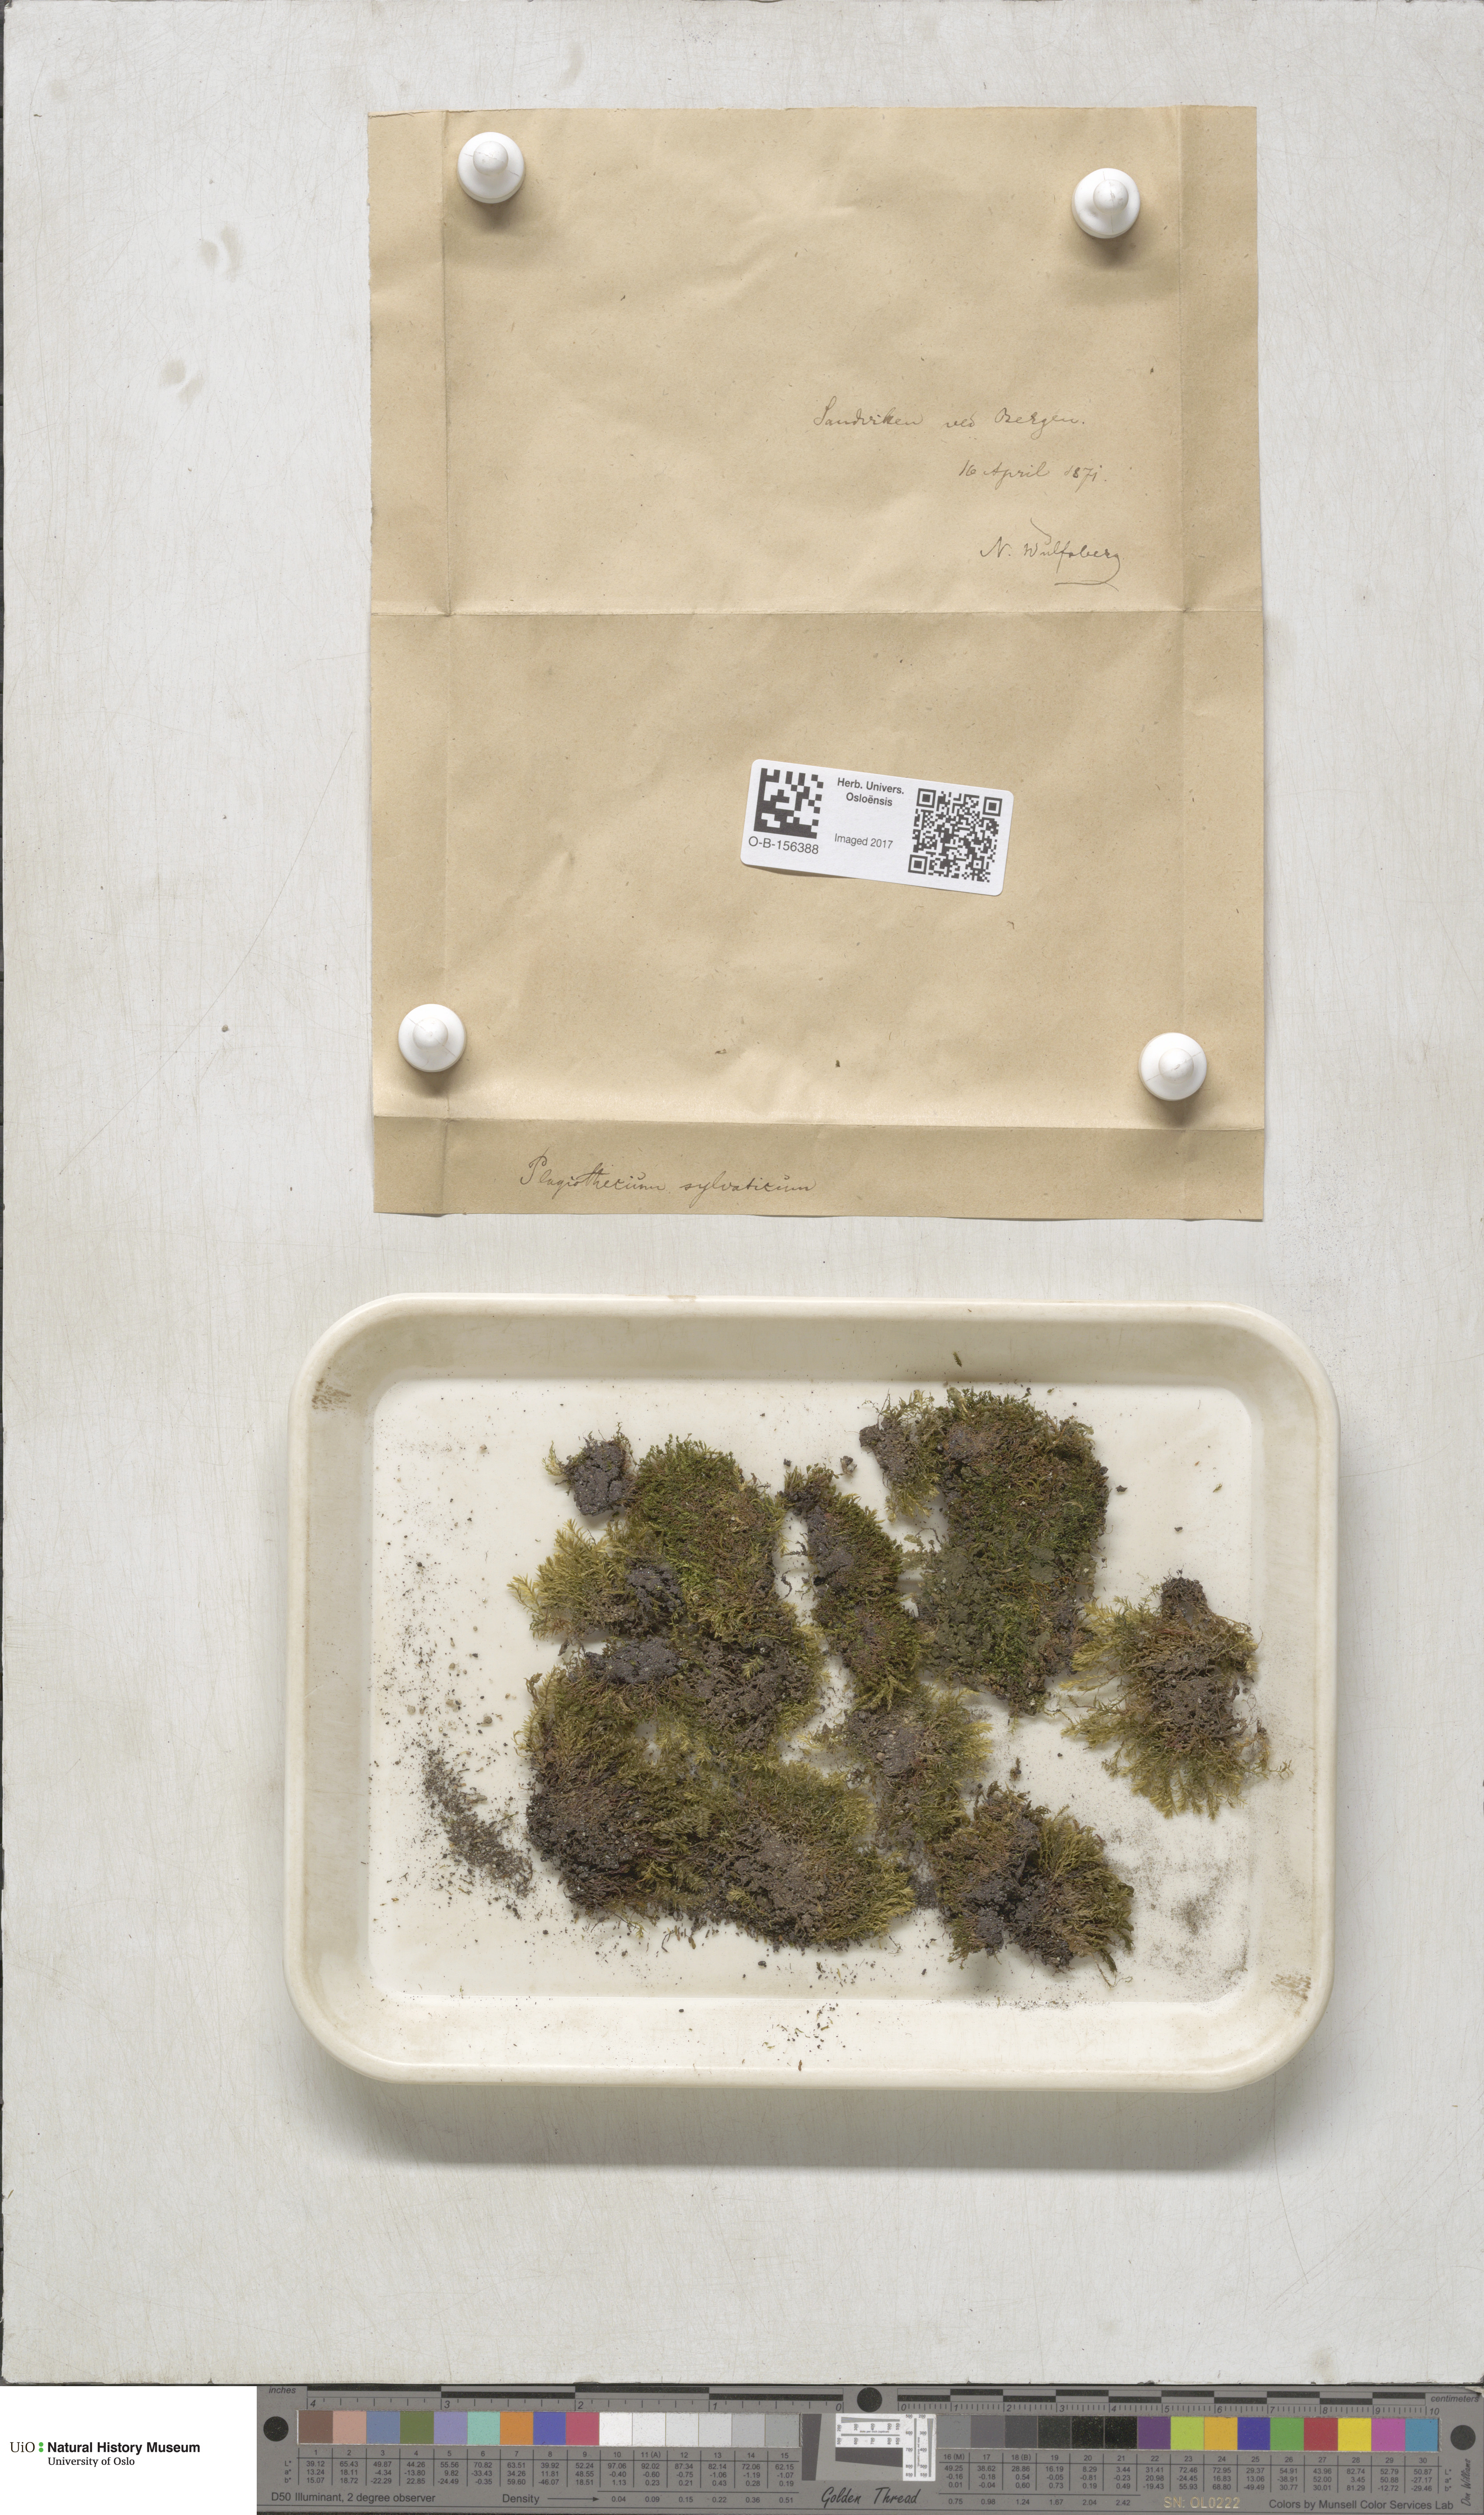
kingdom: Plantae
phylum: Bryophyta
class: Bryopsida
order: Hypnales
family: Plagiotheciaceae
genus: Plagiothecium
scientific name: Plagiothecium nemorale
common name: Woodsy silk-moss
